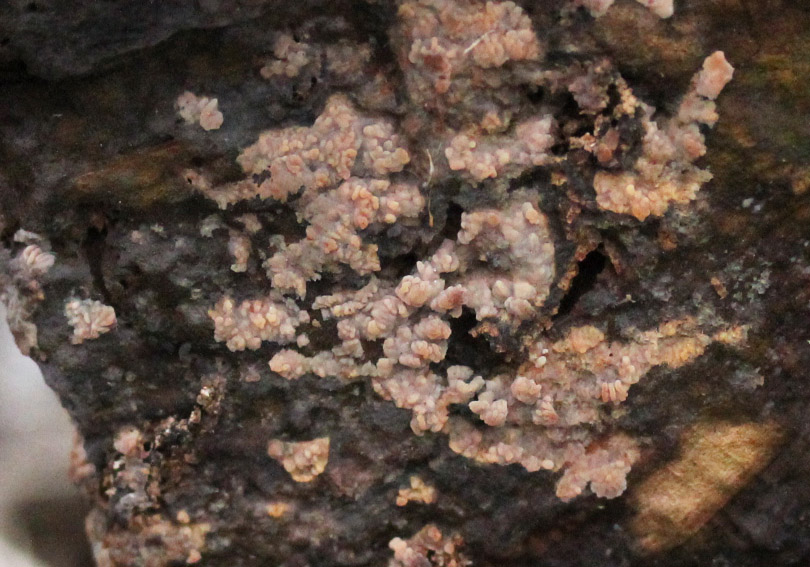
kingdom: Fungi
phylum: Basidiomycota
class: Agaricomycetes
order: Polyporales
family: Meruliaceae
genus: Phlebia
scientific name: Phlebia radiata
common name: stråle-åresvamp
